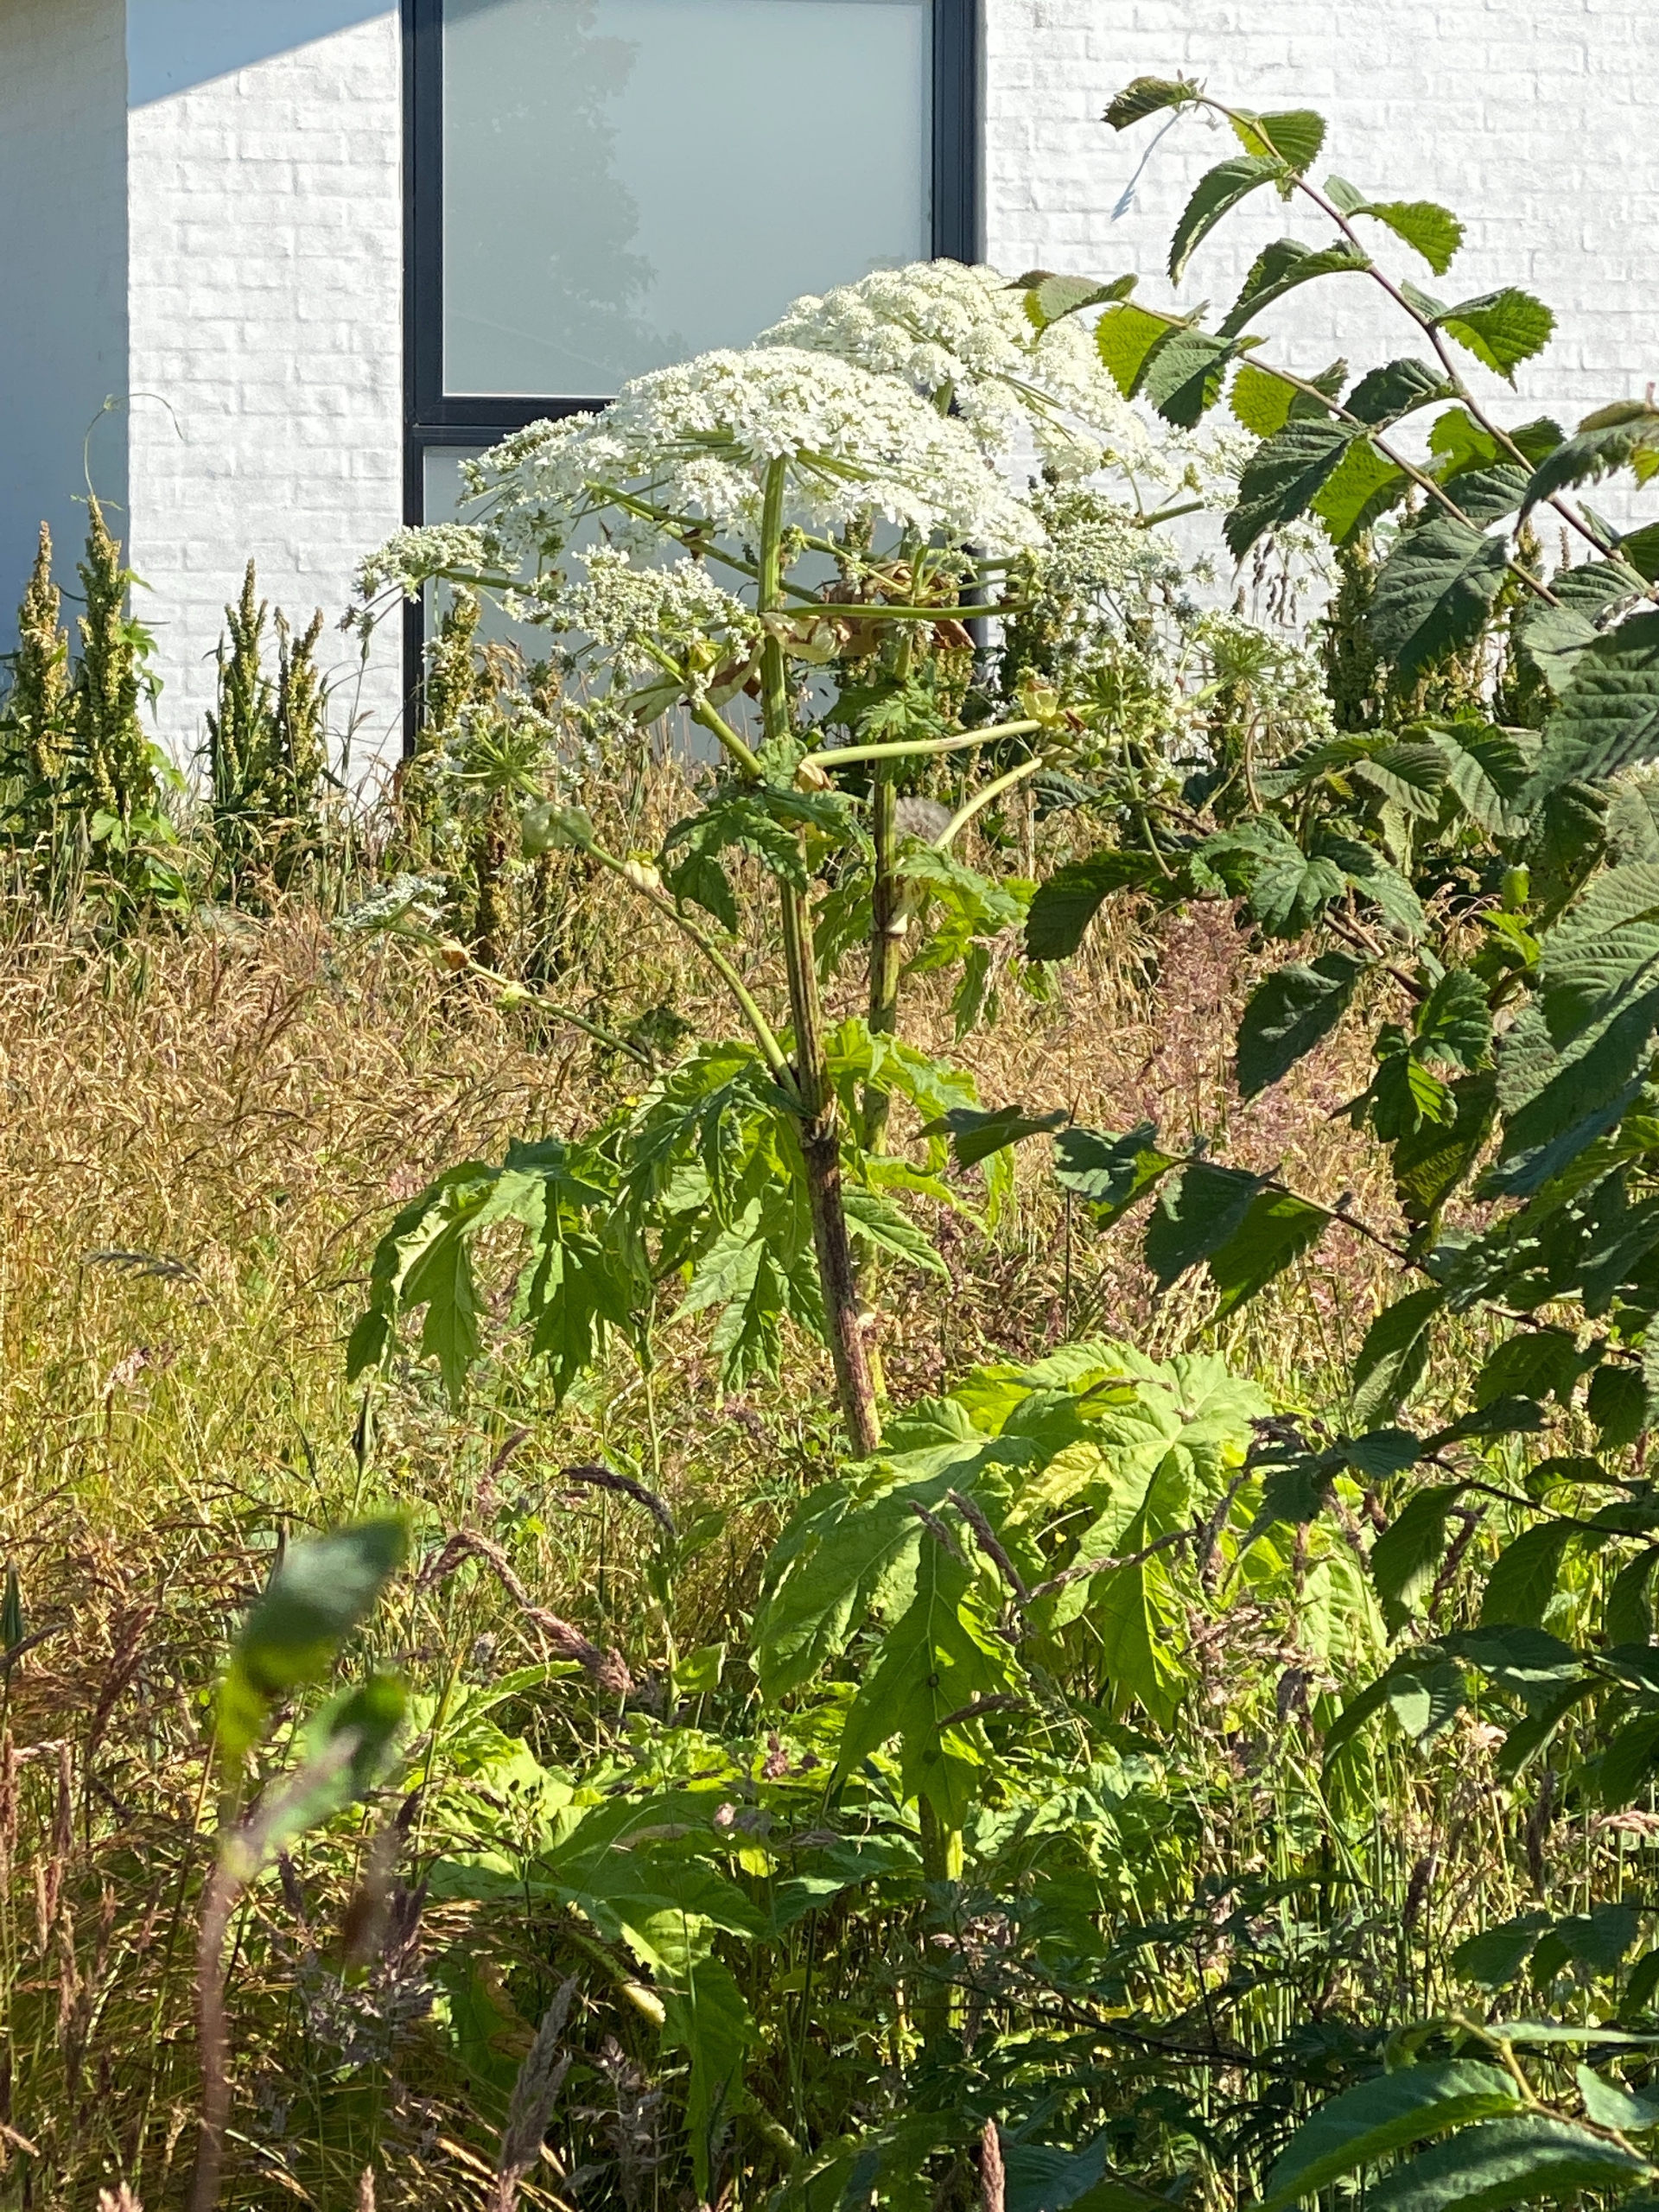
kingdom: Plantae
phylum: Tracheophyta
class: Magnoliopsida
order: Apiales
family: Apiaceae
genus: Heracleum
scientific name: Heracleum mantegazzianum
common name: Kæmpe-bjørneklo
